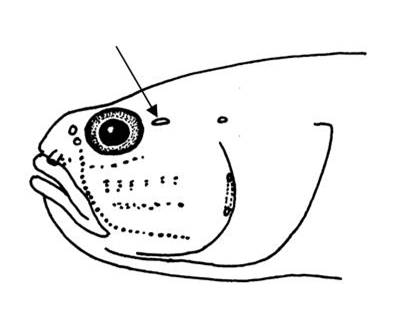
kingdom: Animalia
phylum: Chordata
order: Perciformes
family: Gobiidae
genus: Aulopareia
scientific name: Aulopareia janetae
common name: Scalycheek goby
